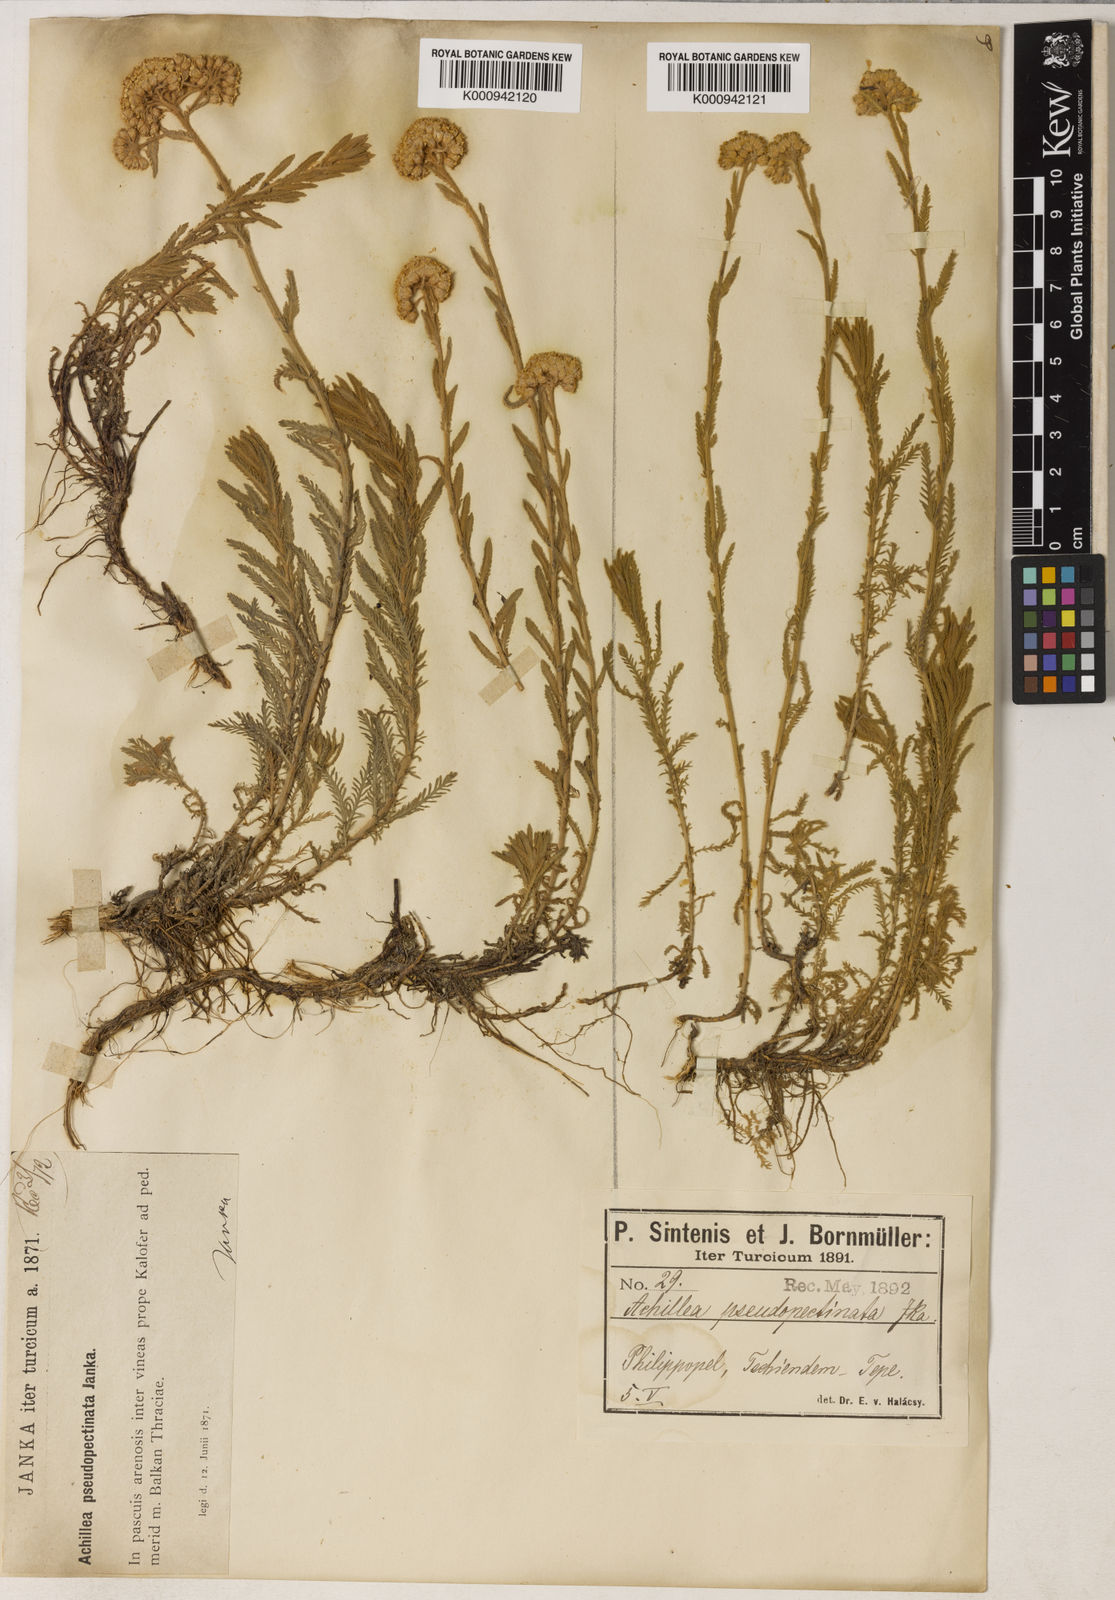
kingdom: Plantae
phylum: Tracheophyta
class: Magnoliopsida
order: Asterales
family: Asteraceae
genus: Achillea
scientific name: Achillea pseudopectinata
